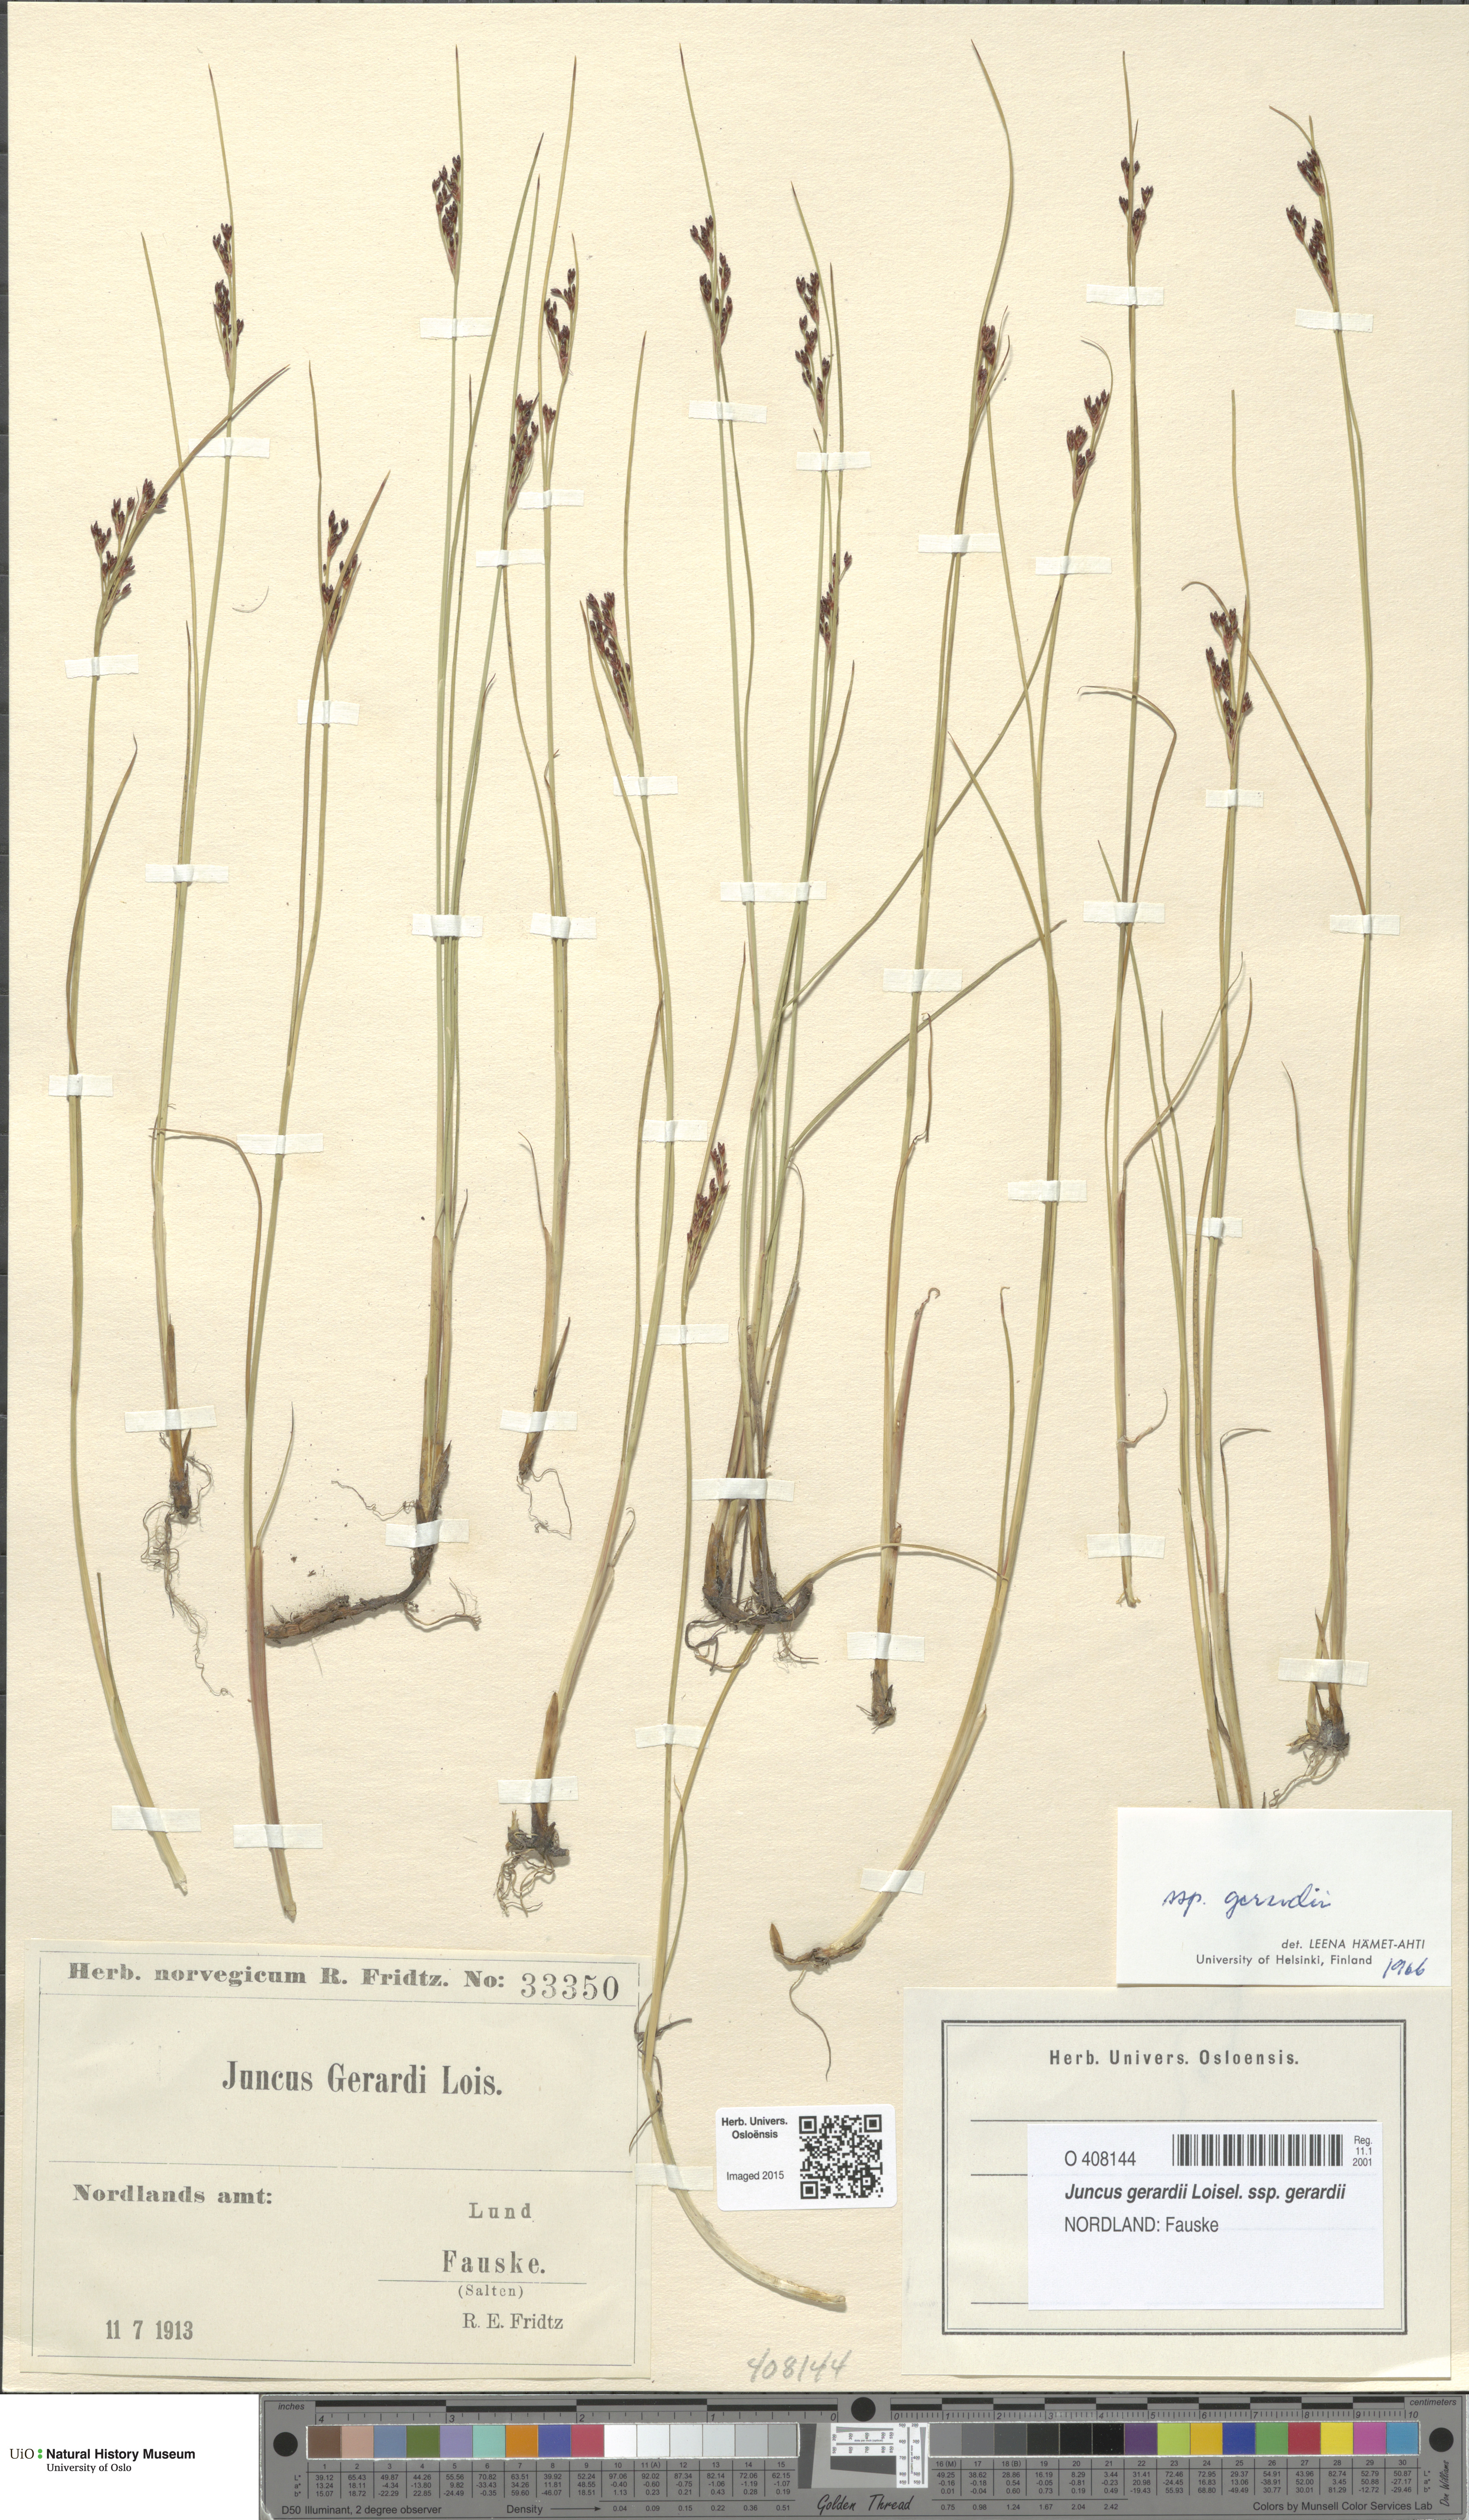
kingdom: Plantae
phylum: Tracheophyta
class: Liliopsida
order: Poales
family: Juncaceae
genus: Juncus
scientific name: Juncus gerardi
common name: Saltmarsh rush
